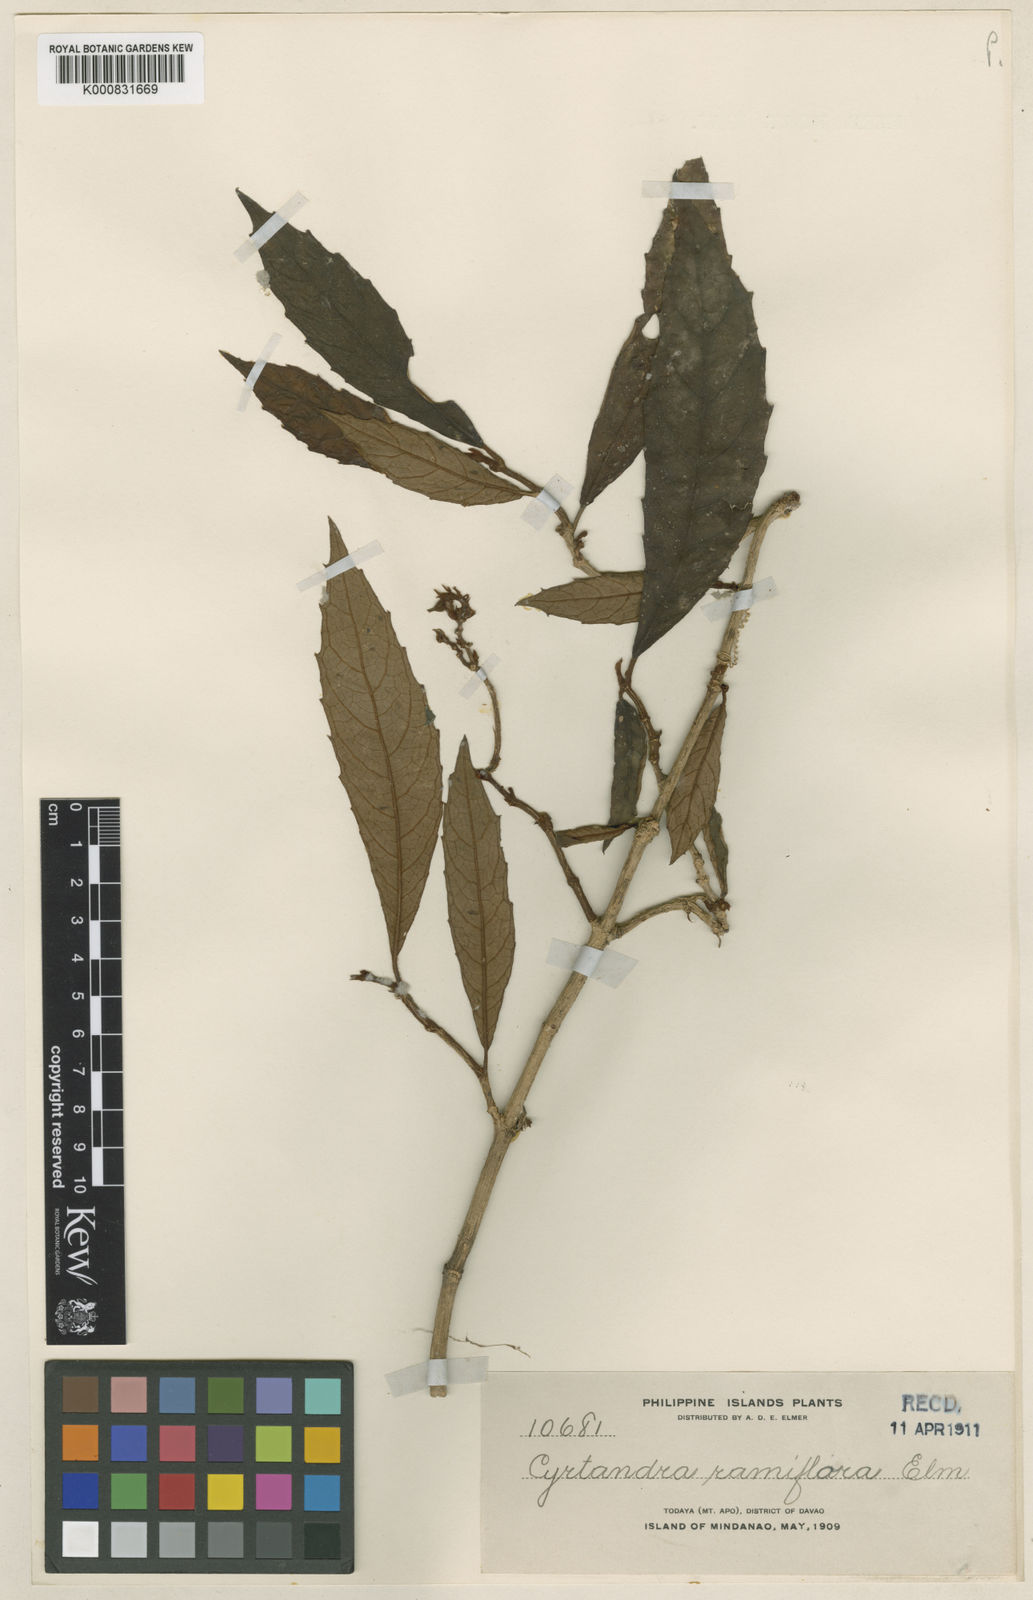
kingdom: Plantae
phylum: Tracheophyta
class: Magnoliopsida
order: Lamiales
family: Gesneriaceae
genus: Cyrtandra
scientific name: Cyrtandra ramiflora
